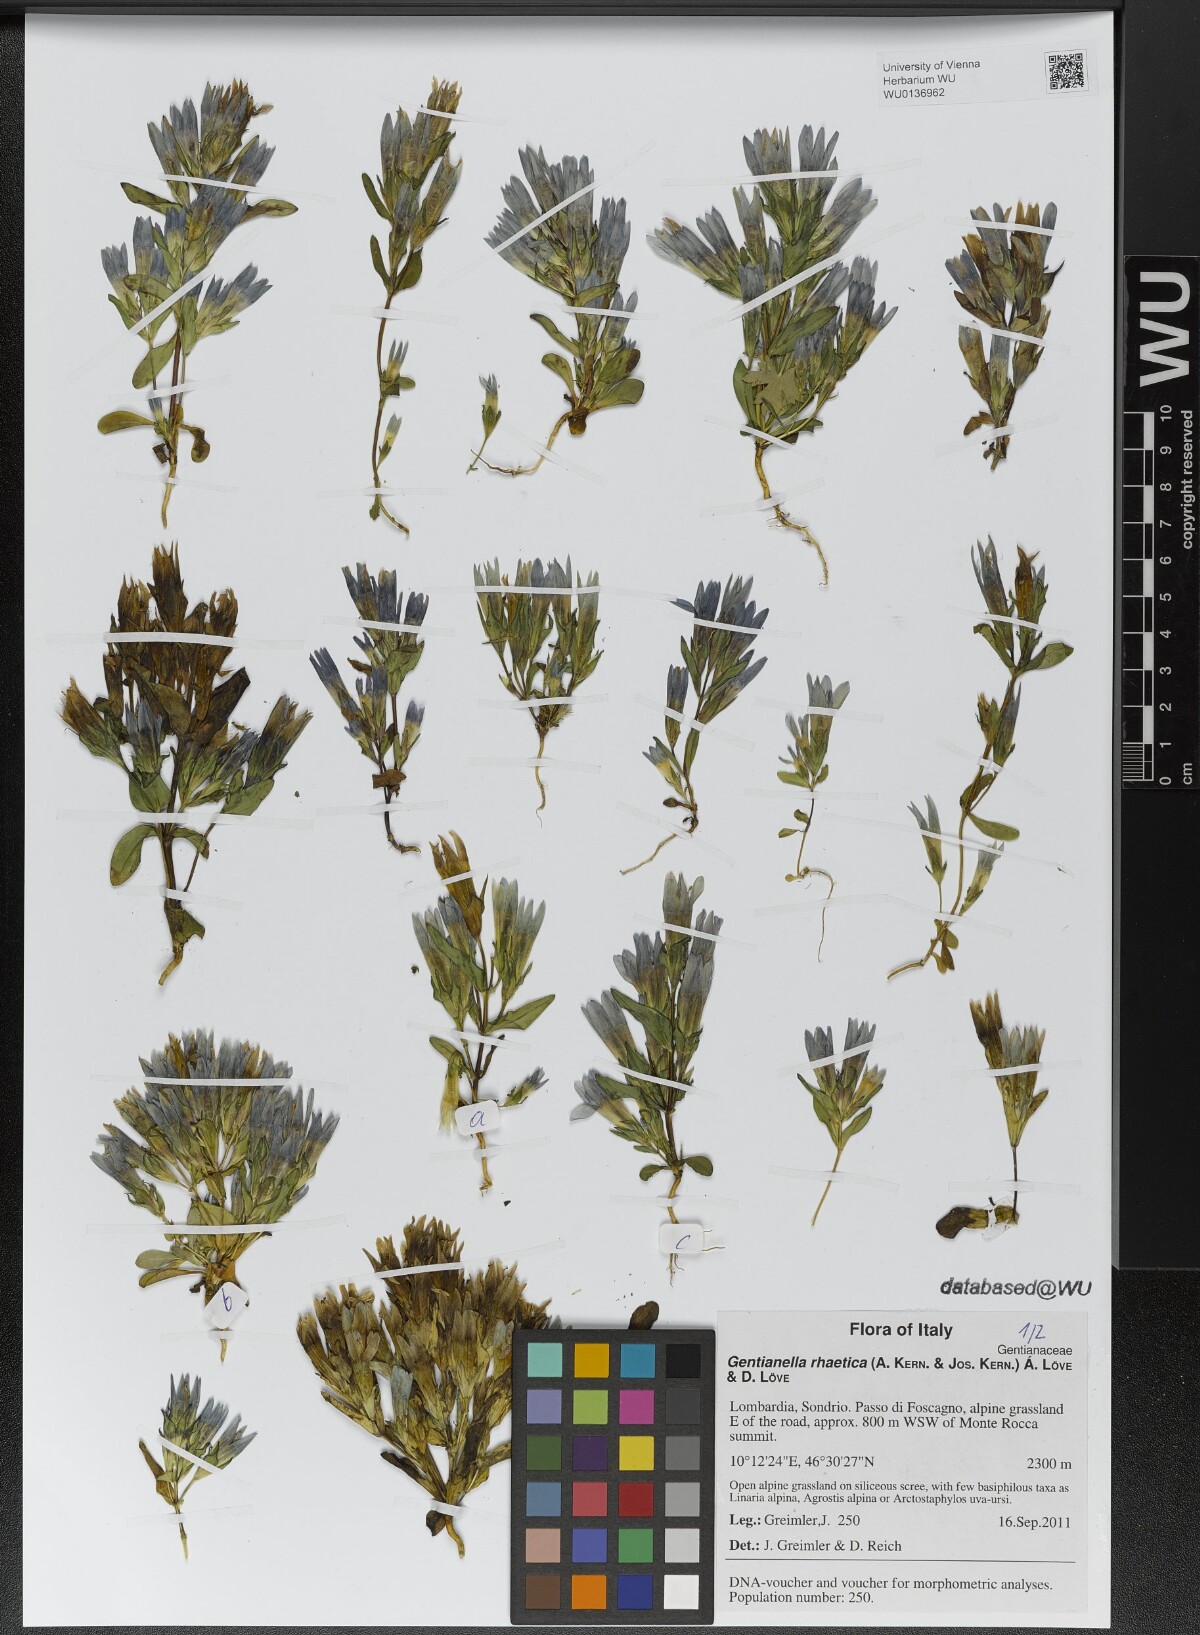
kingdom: Plantae
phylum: Tracheophyta
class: Magnoliopsida
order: Gentianales
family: Gentianaceae
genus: Gentianella
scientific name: Gentianella rhaetica
